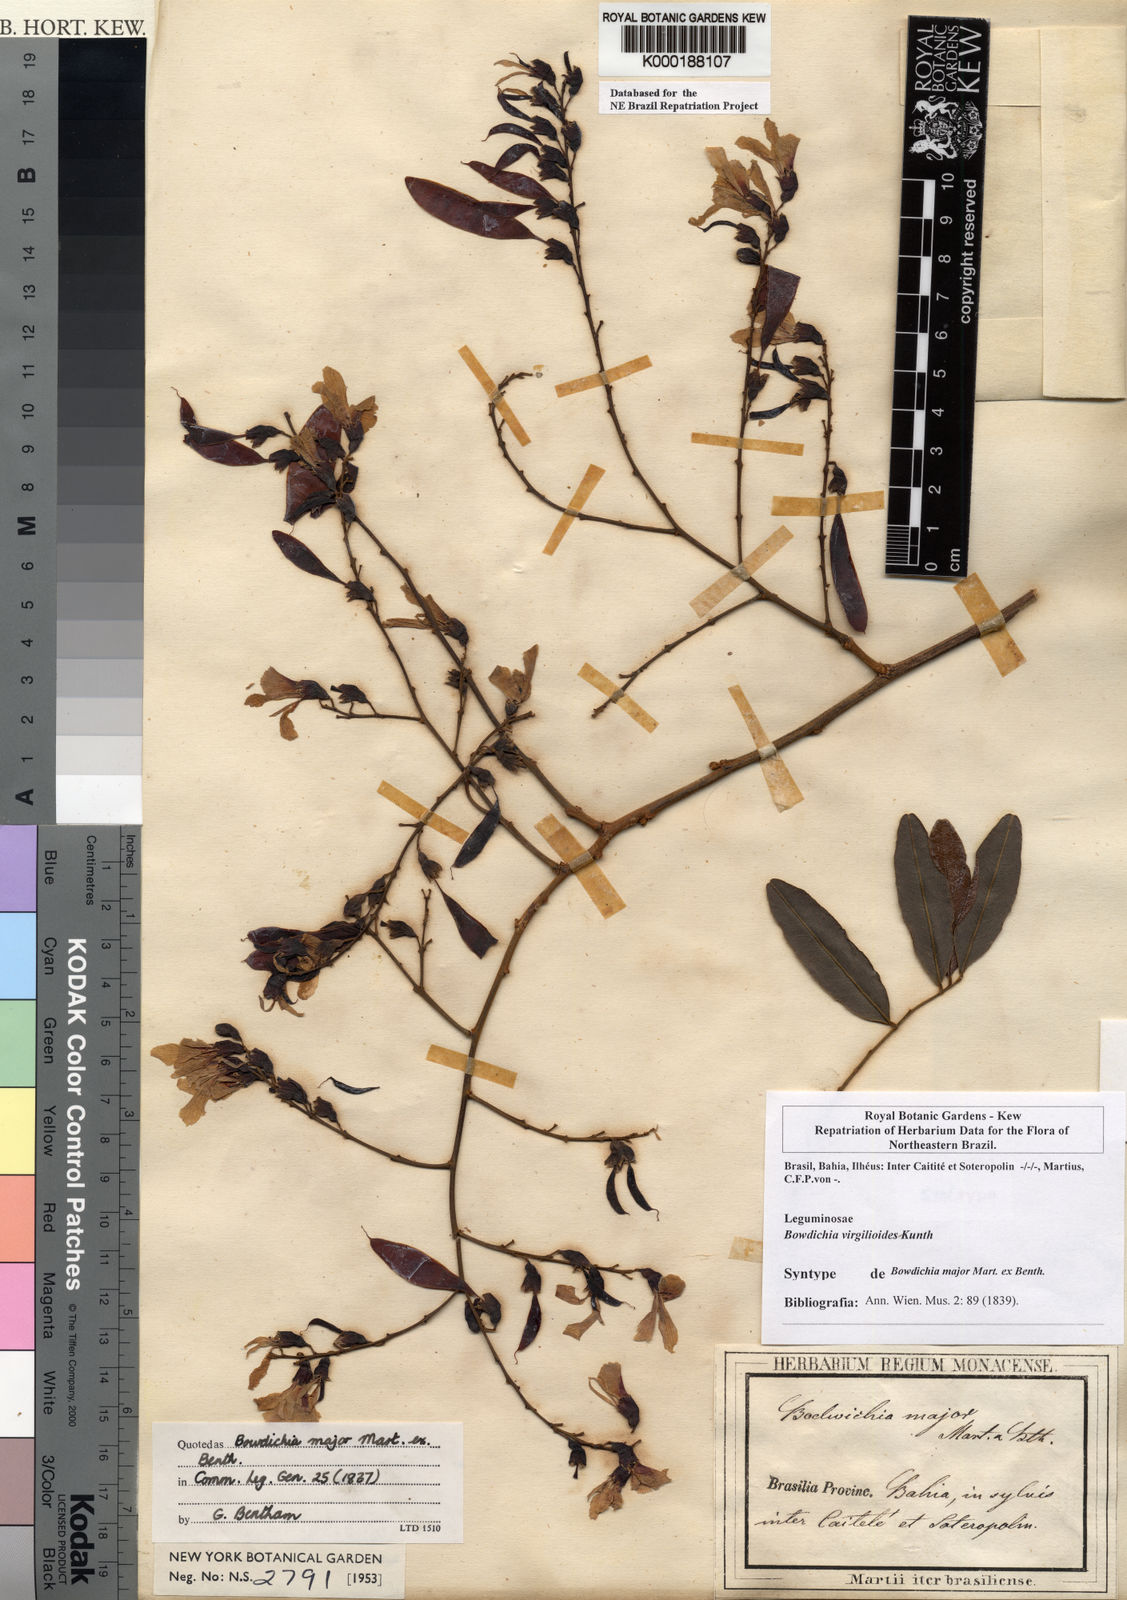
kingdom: Plantae
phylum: Tracheophyta
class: Magnoliopsida
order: Fabales
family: Fabaceae
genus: Bowdichia
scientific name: Bowdichia virgilioides
